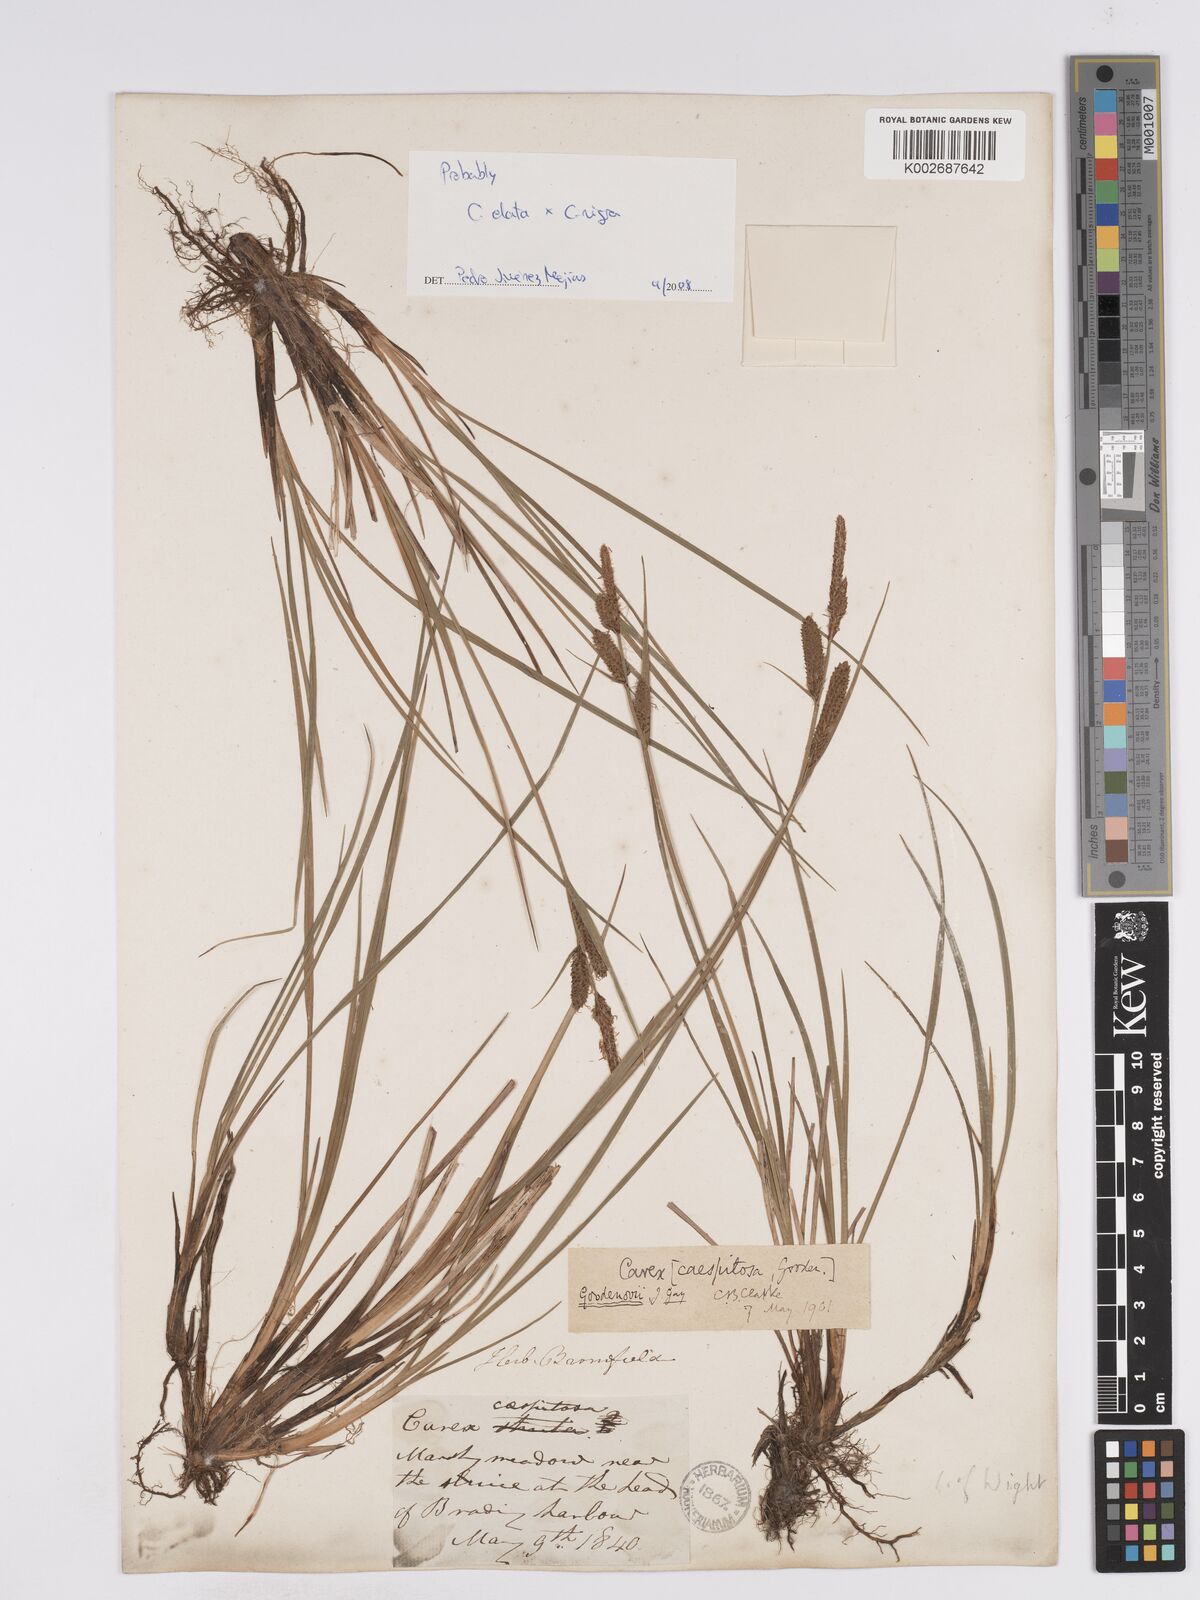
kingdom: Plantae
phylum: Tracheophyta
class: Liliopsida
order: Poales
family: Cyperaceae
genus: Carex
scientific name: Carex nigra
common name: Common sedge
